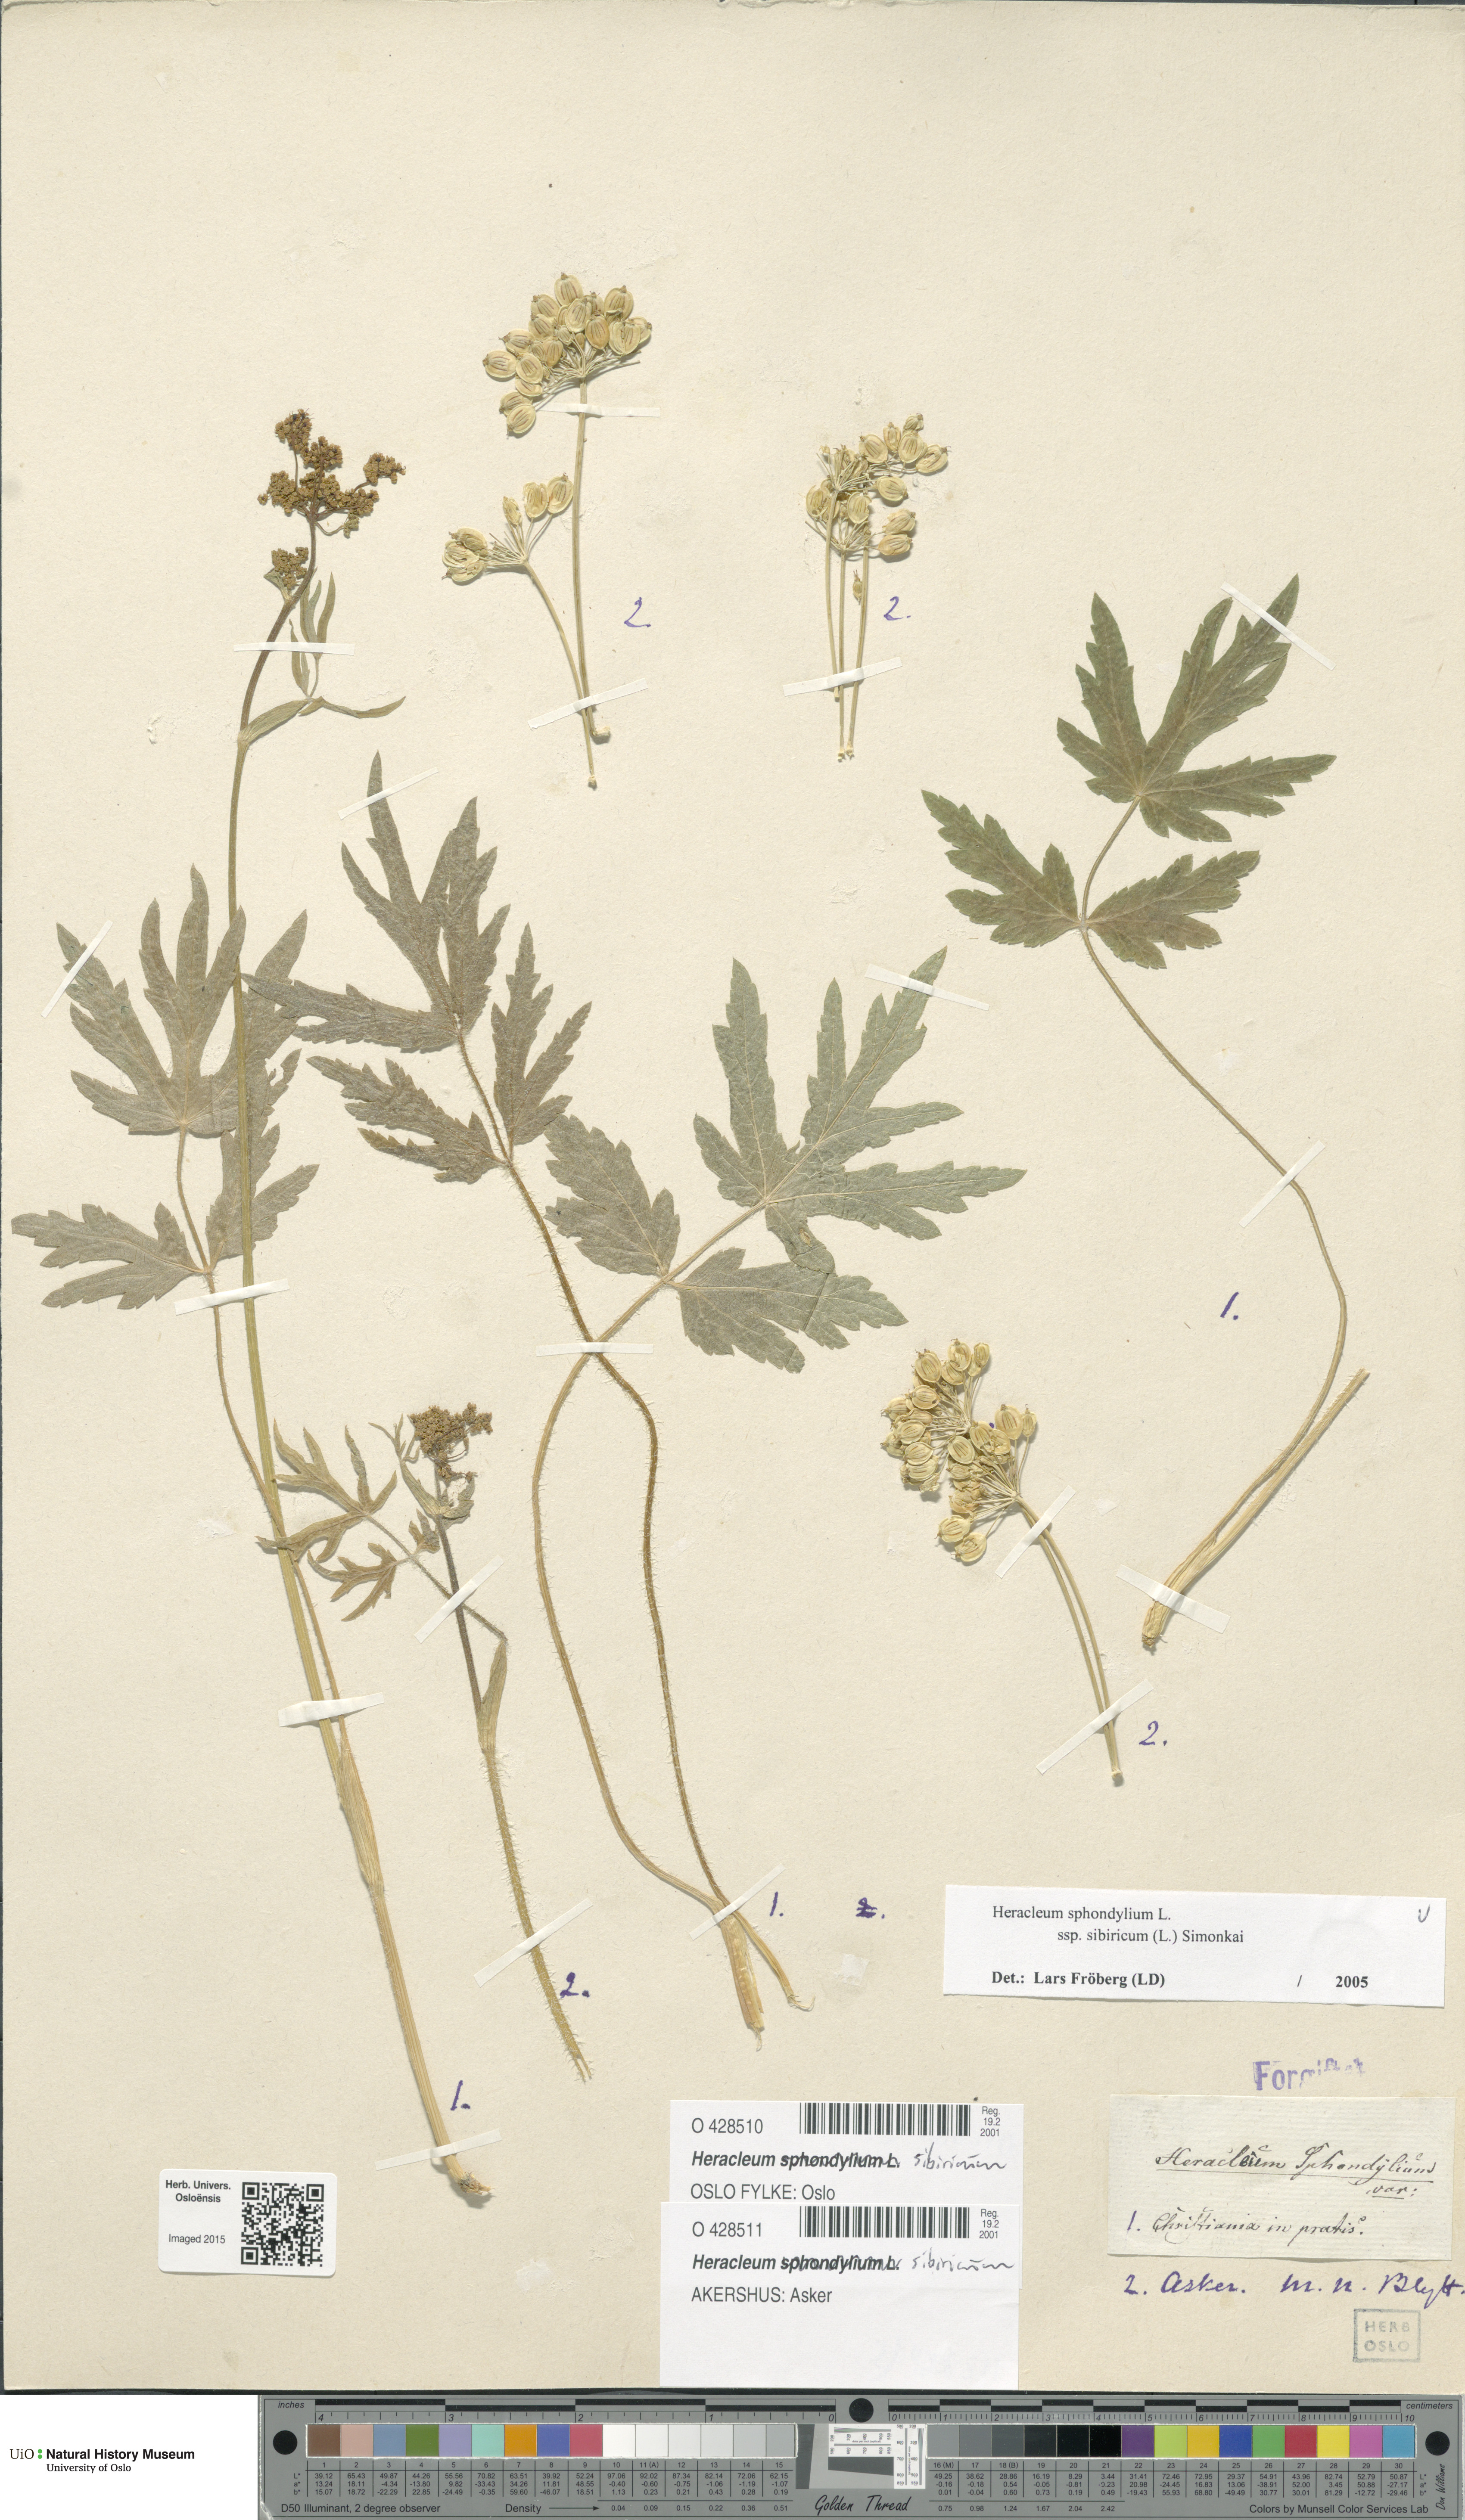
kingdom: Plantae
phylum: Tracheophyta
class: Magnoliopsida
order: Apiales
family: Apiaceae
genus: Heracleum
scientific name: Heracleum sphondylium
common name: Hogweed
